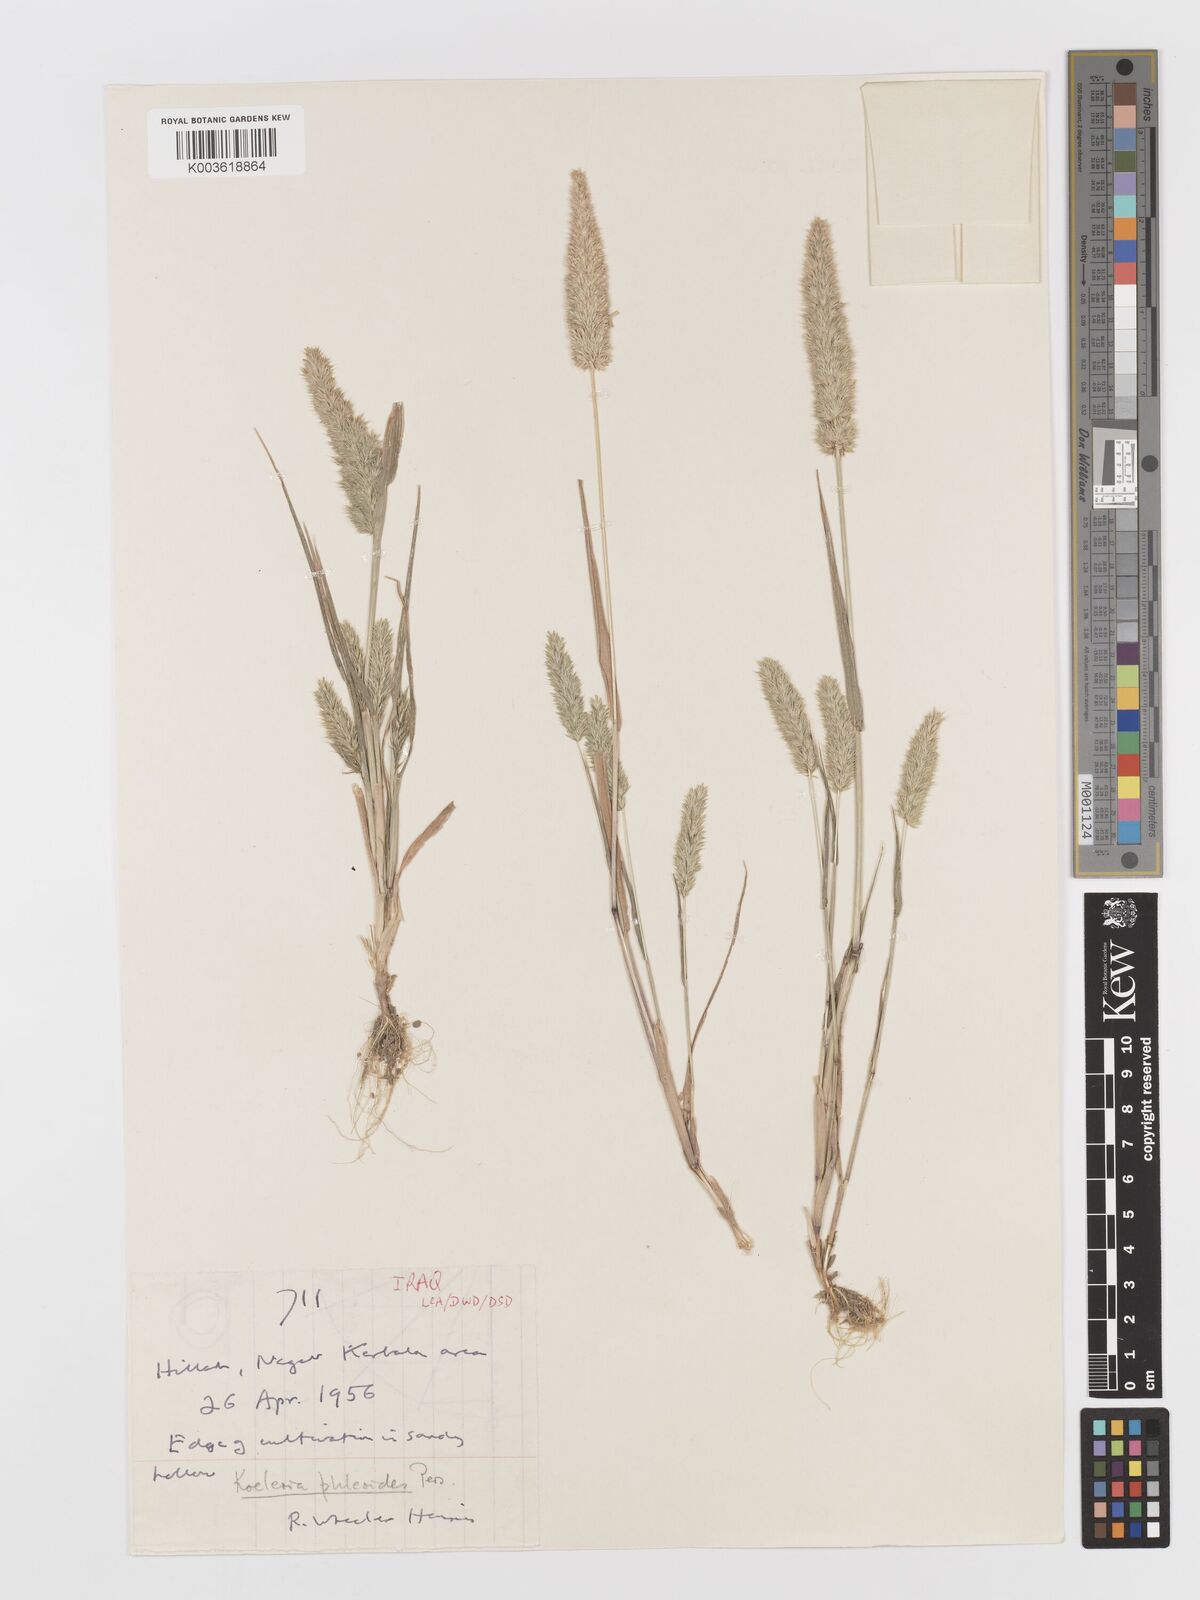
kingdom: Plantae
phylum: Tracheophyta
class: Liliopsida
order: Poales
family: Poaceae
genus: Rostraria
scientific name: Rostraria cristata
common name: Mediterranean hair-grass
